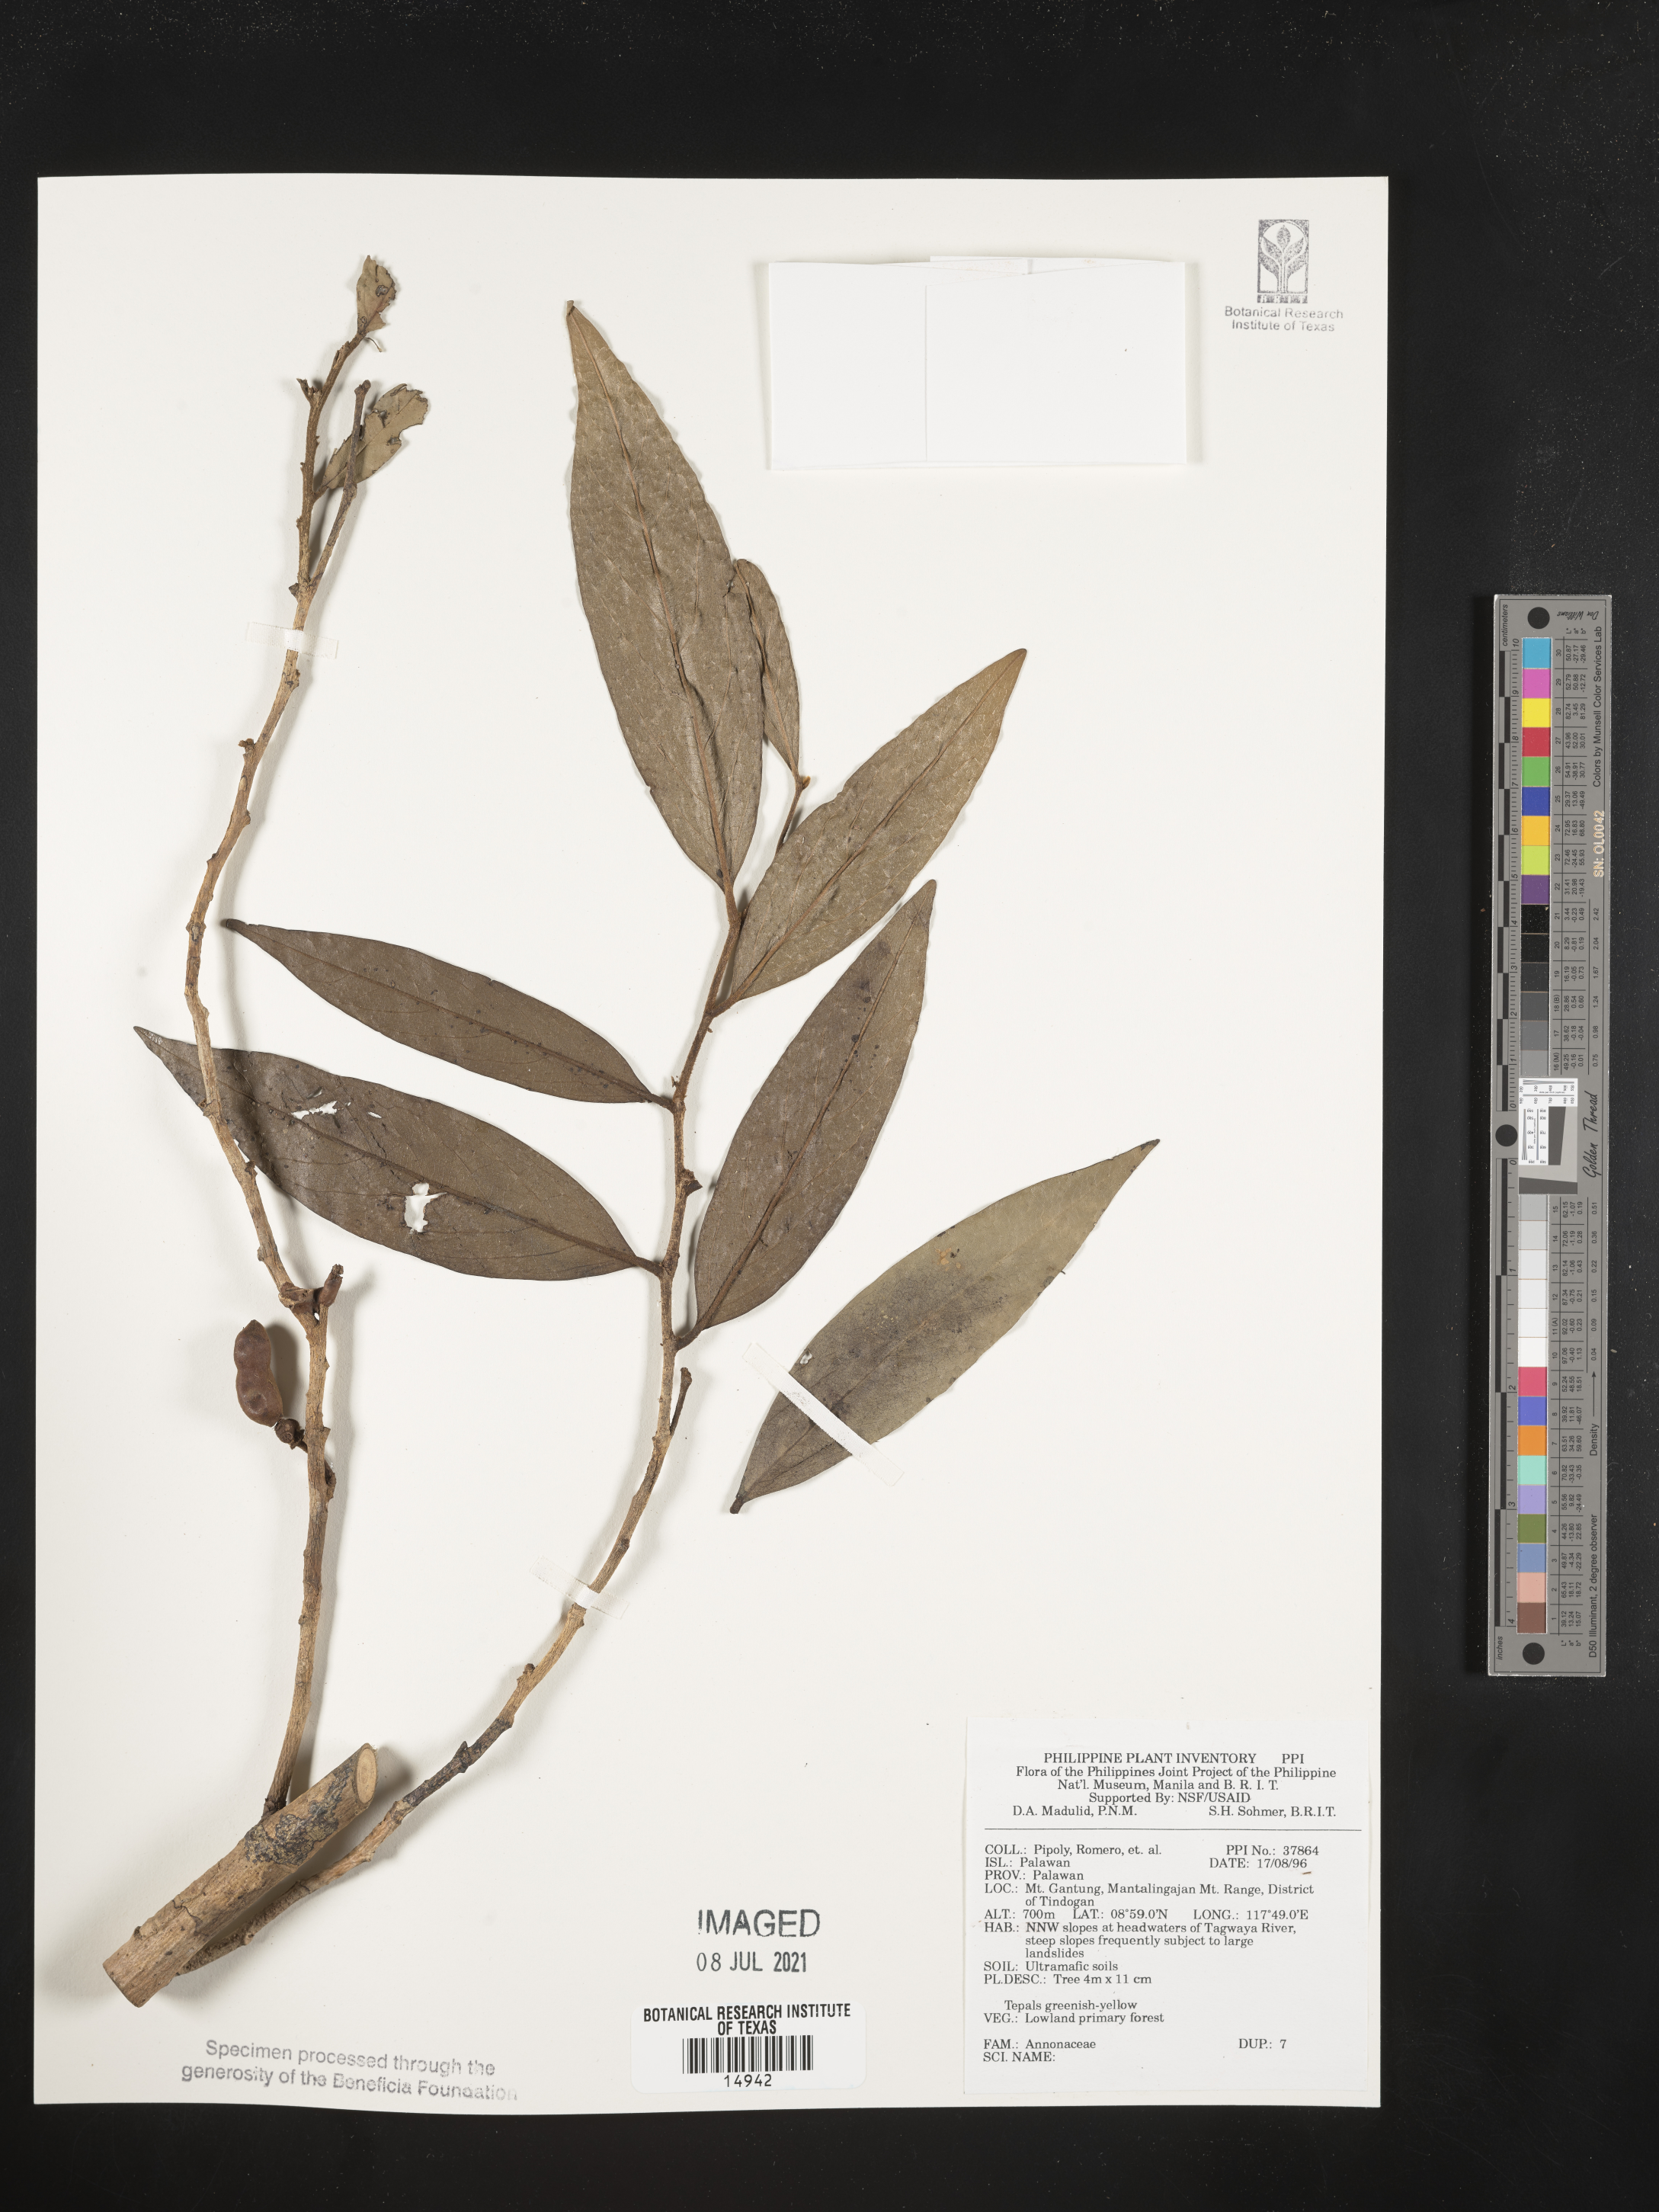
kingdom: Plantae
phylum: Tracheophyta
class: Magnoliopsida
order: Magnoliales
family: Annonaceae
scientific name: Annonaceae
